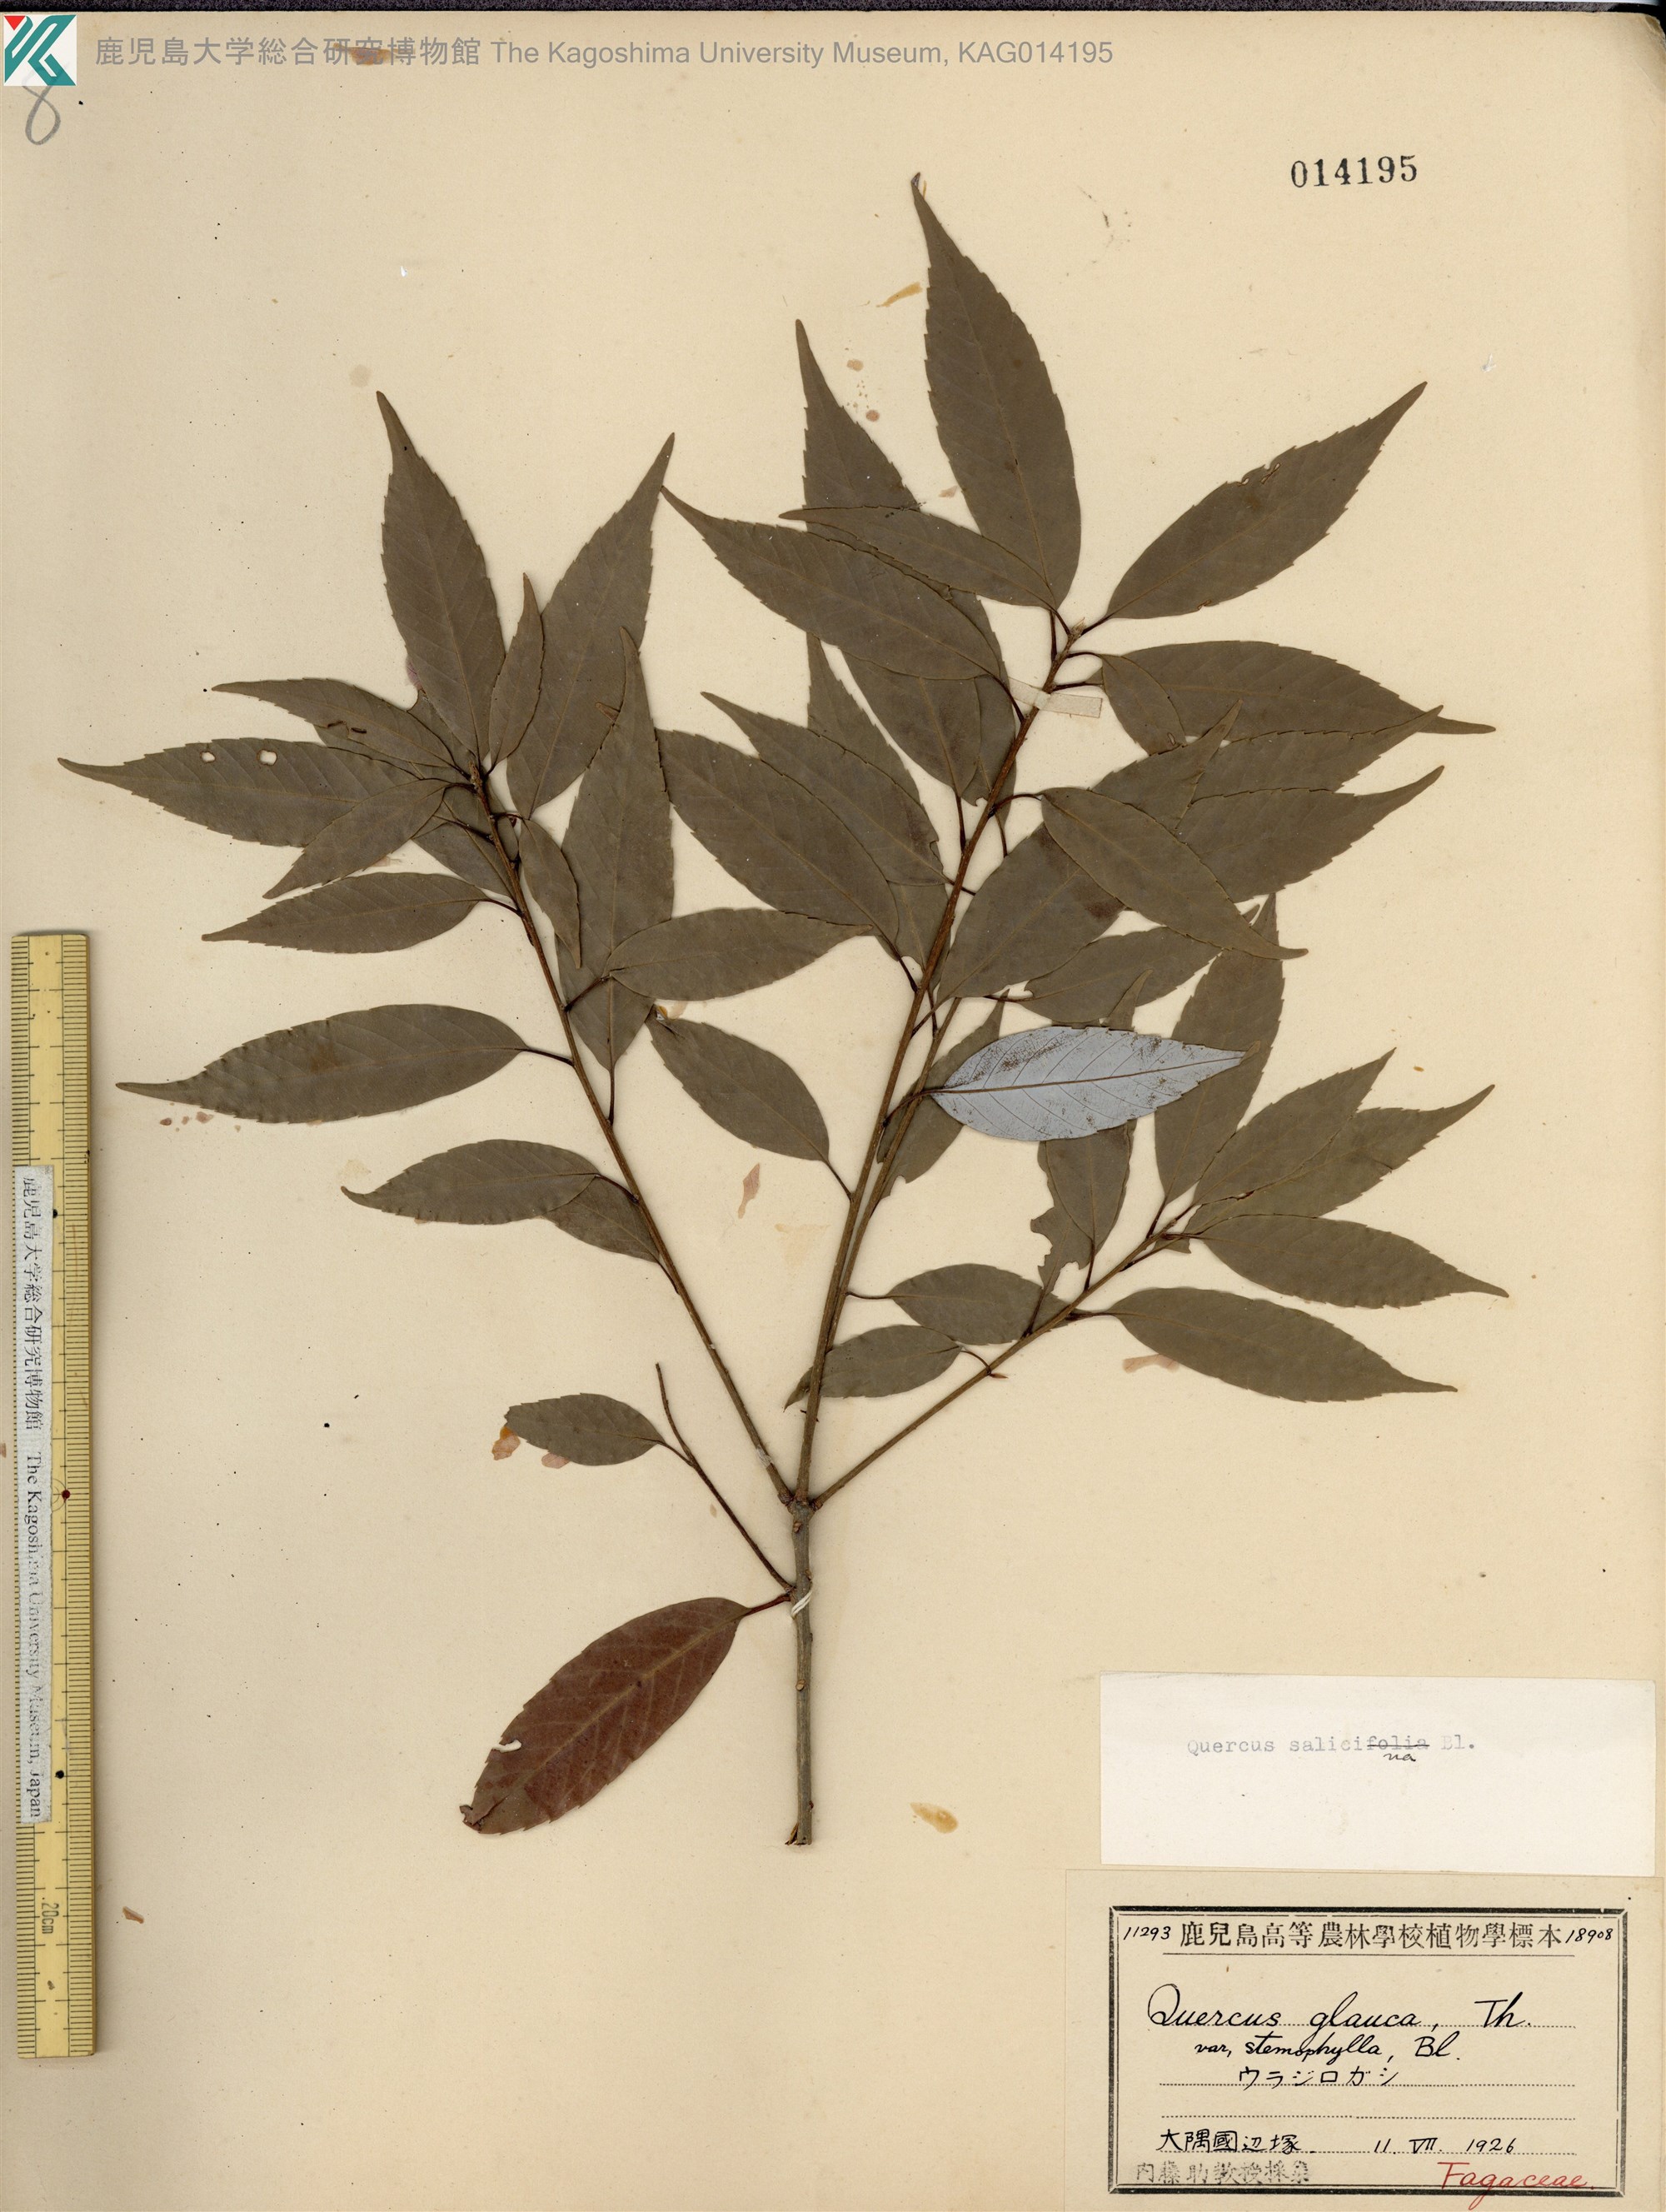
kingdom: Plantae
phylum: Tracheophyta
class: Magnoliopsida
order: Fagales
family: Fagaceae
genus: Quercus
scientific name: Quercus salicina
